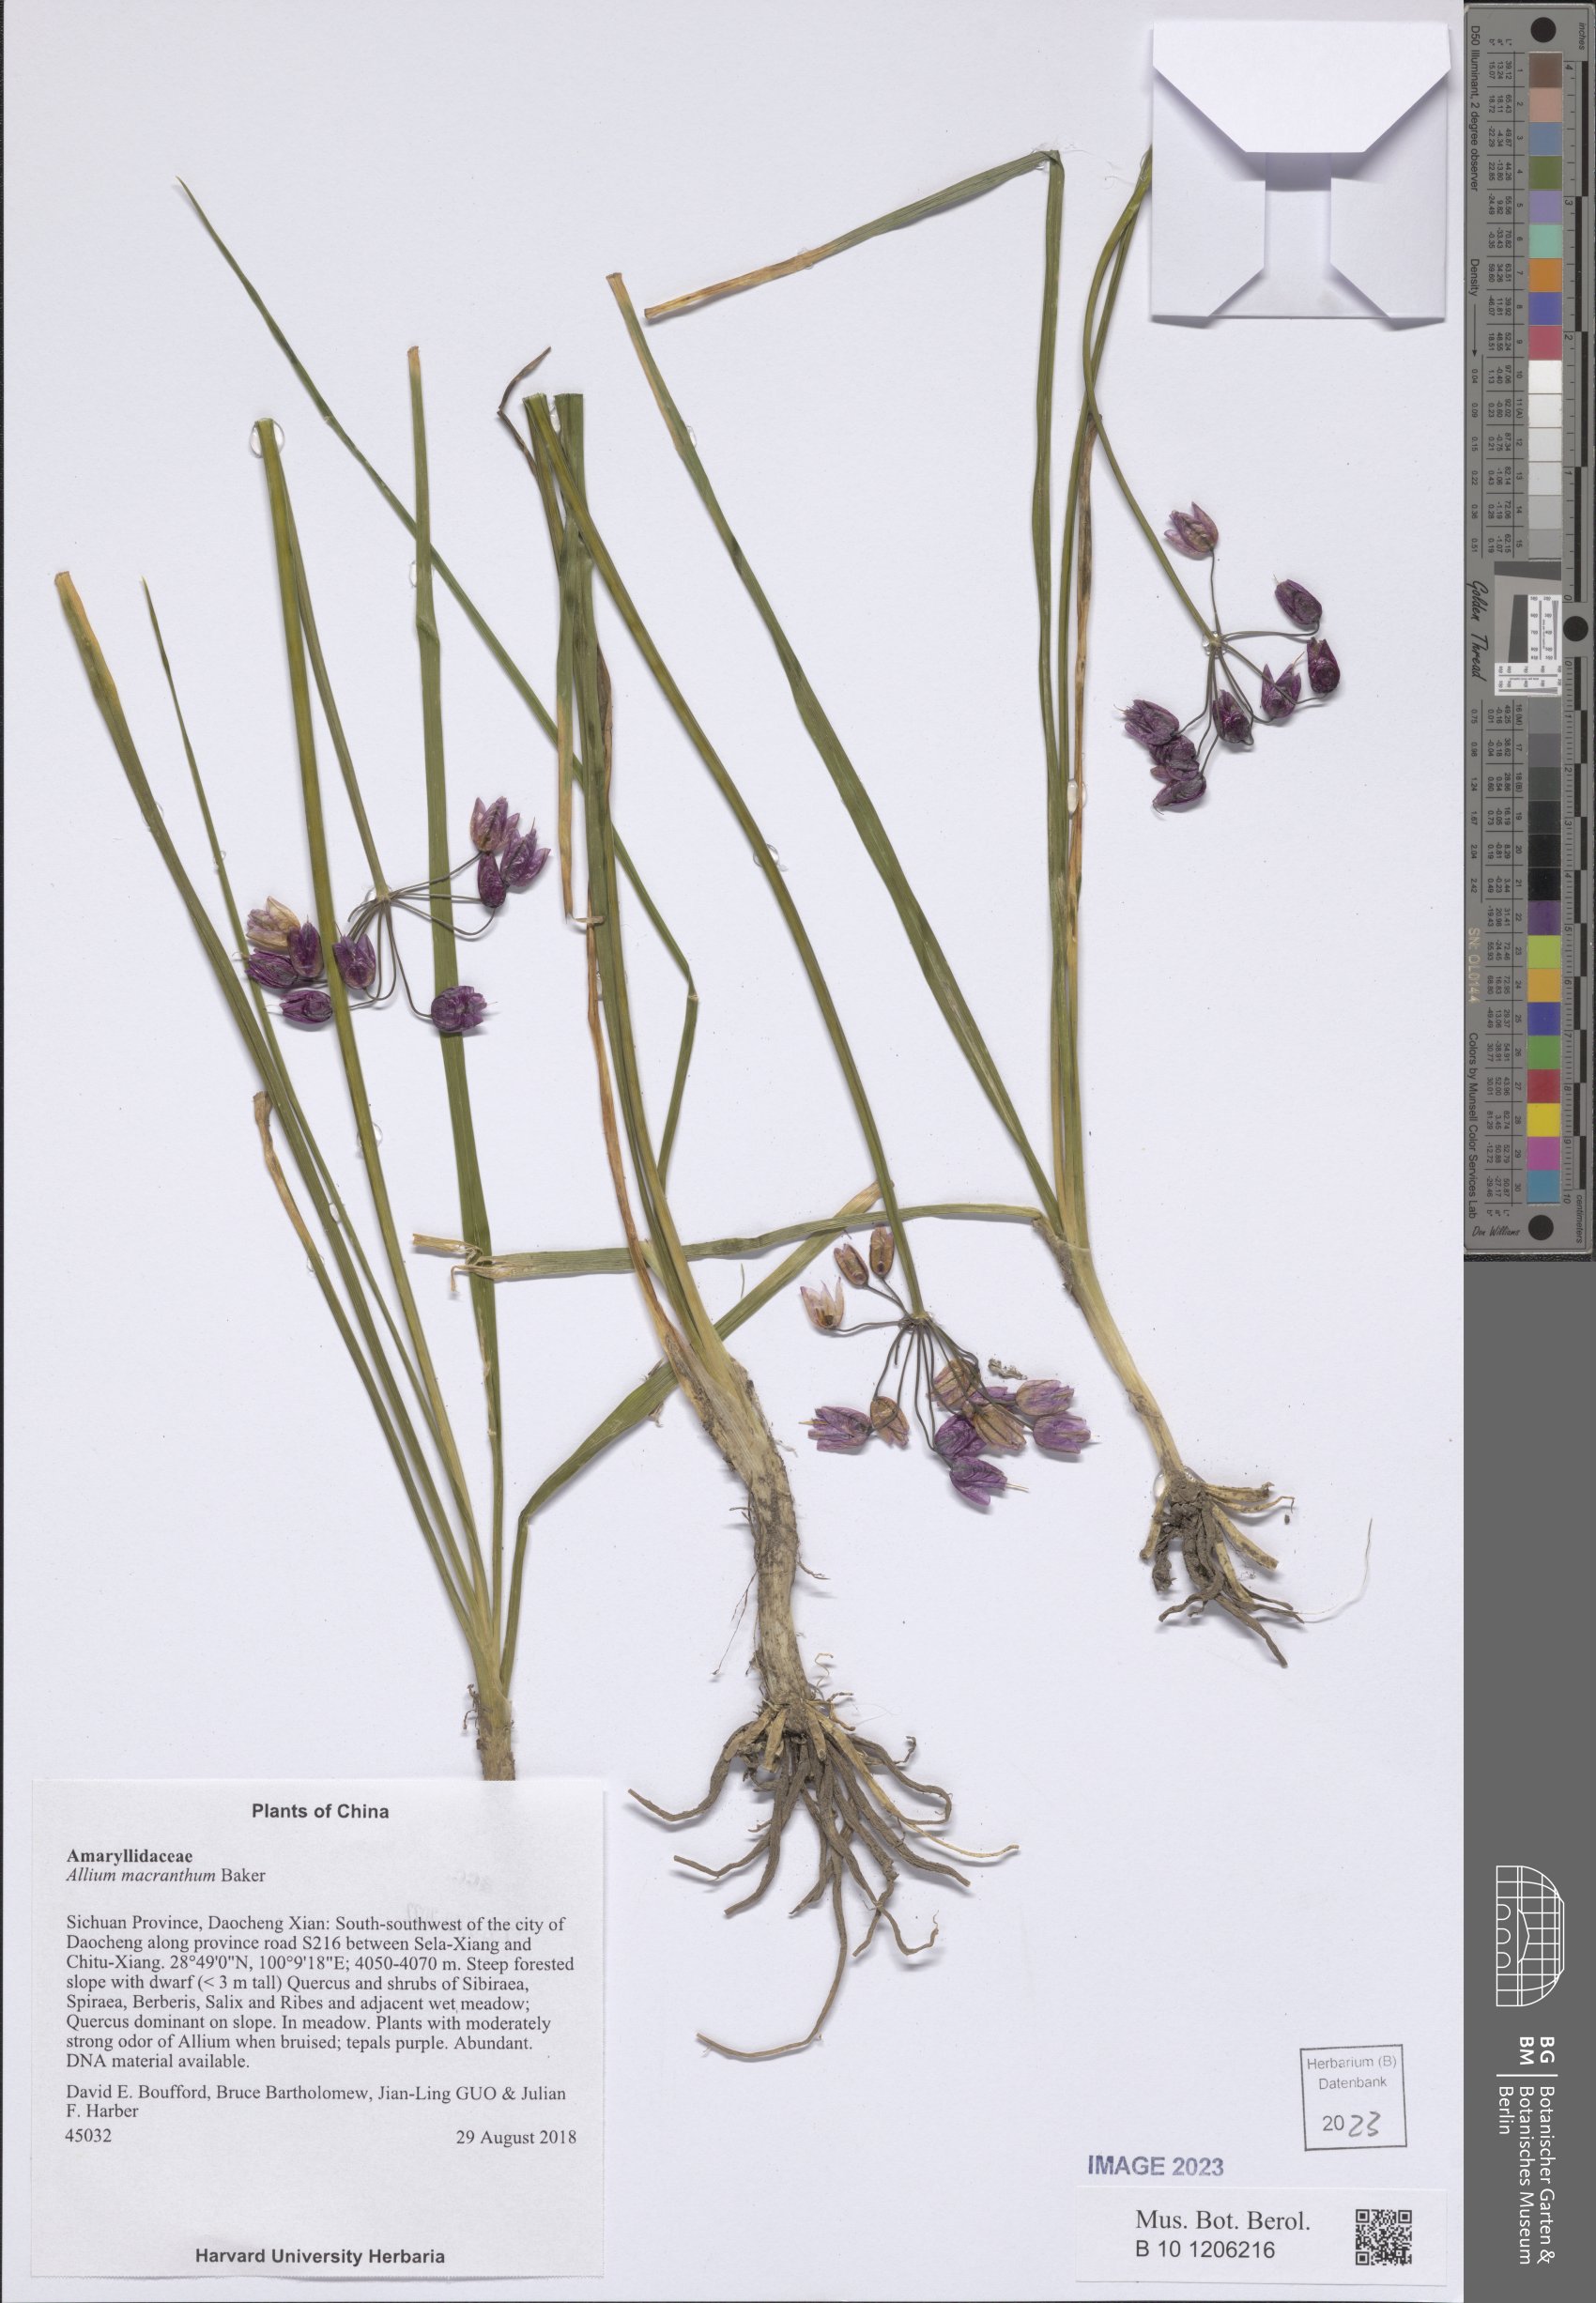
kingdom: Plantae
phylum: Tracheophyta
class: Liliopsida
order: Asparagales
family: Amaryllidaceae
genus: Allium
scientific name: Allium macranthum
